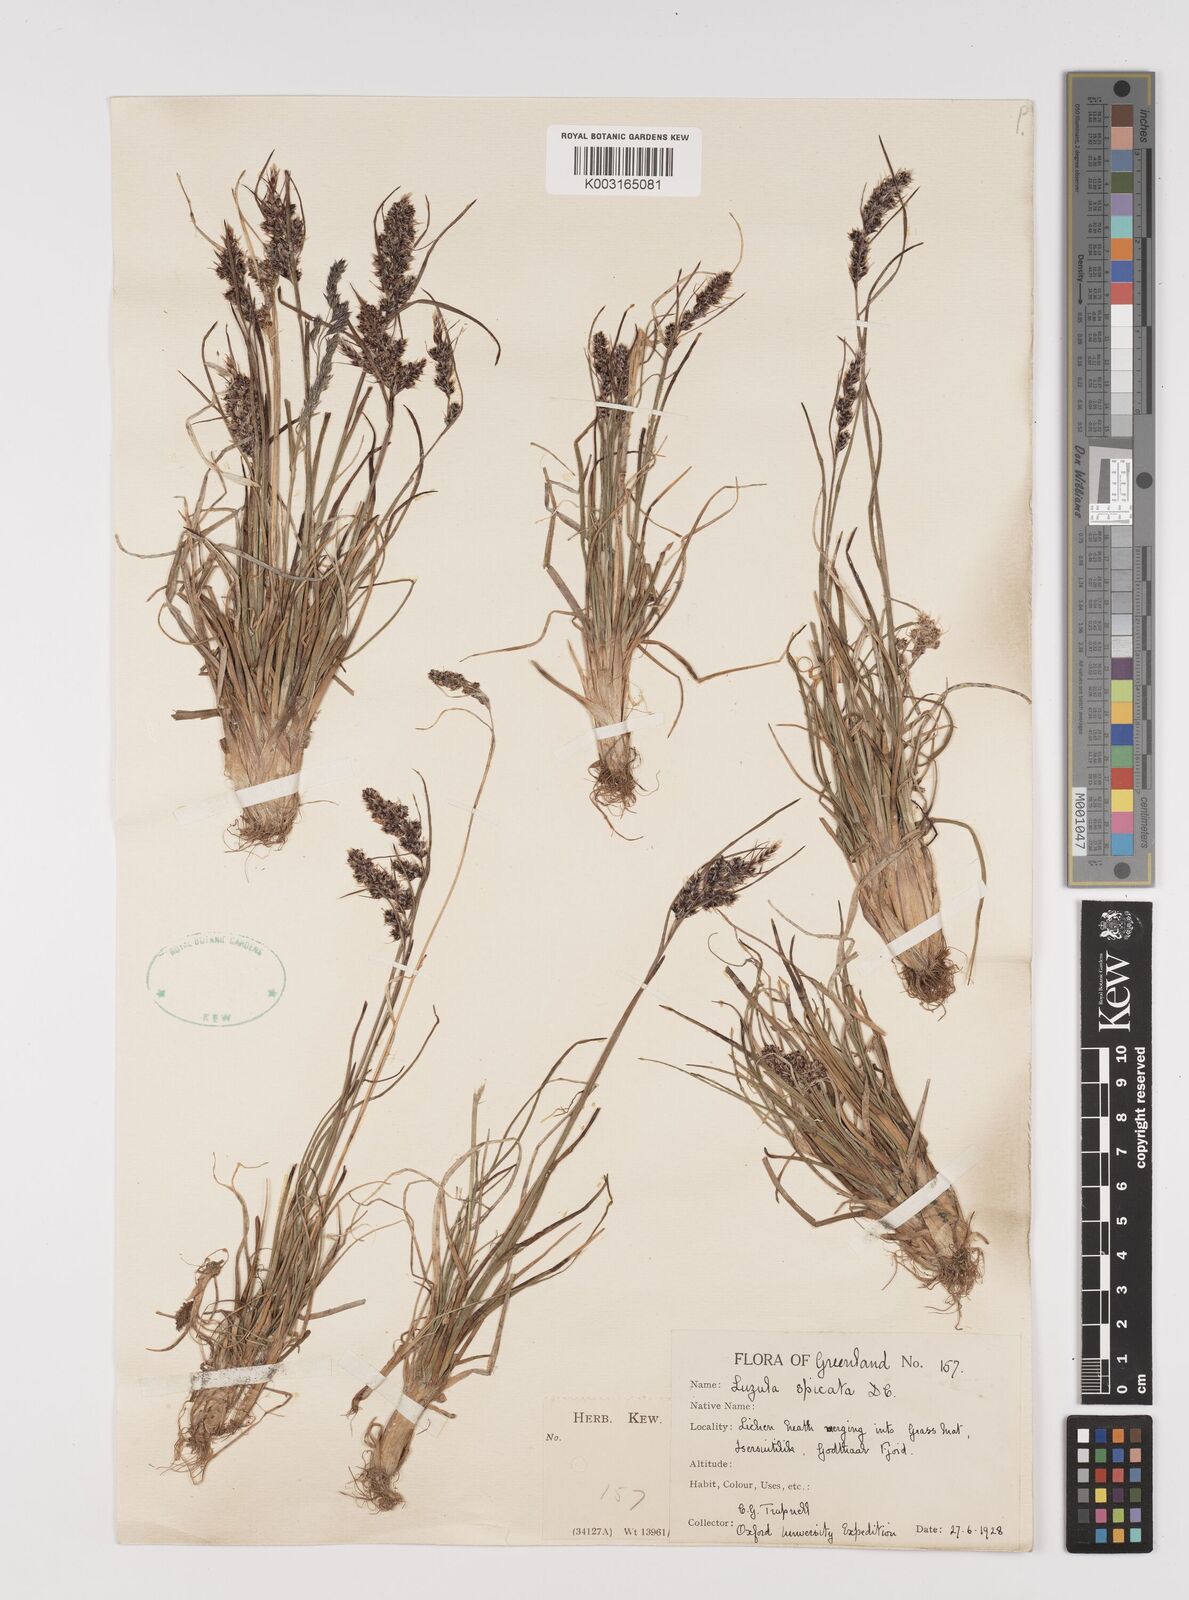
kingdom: Plantae
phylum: Tracheophyta
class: Liliopsida
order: Poales
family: Juncaceae
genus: Luzula
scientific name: Luzula spicata
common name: Spiked wood-rush
